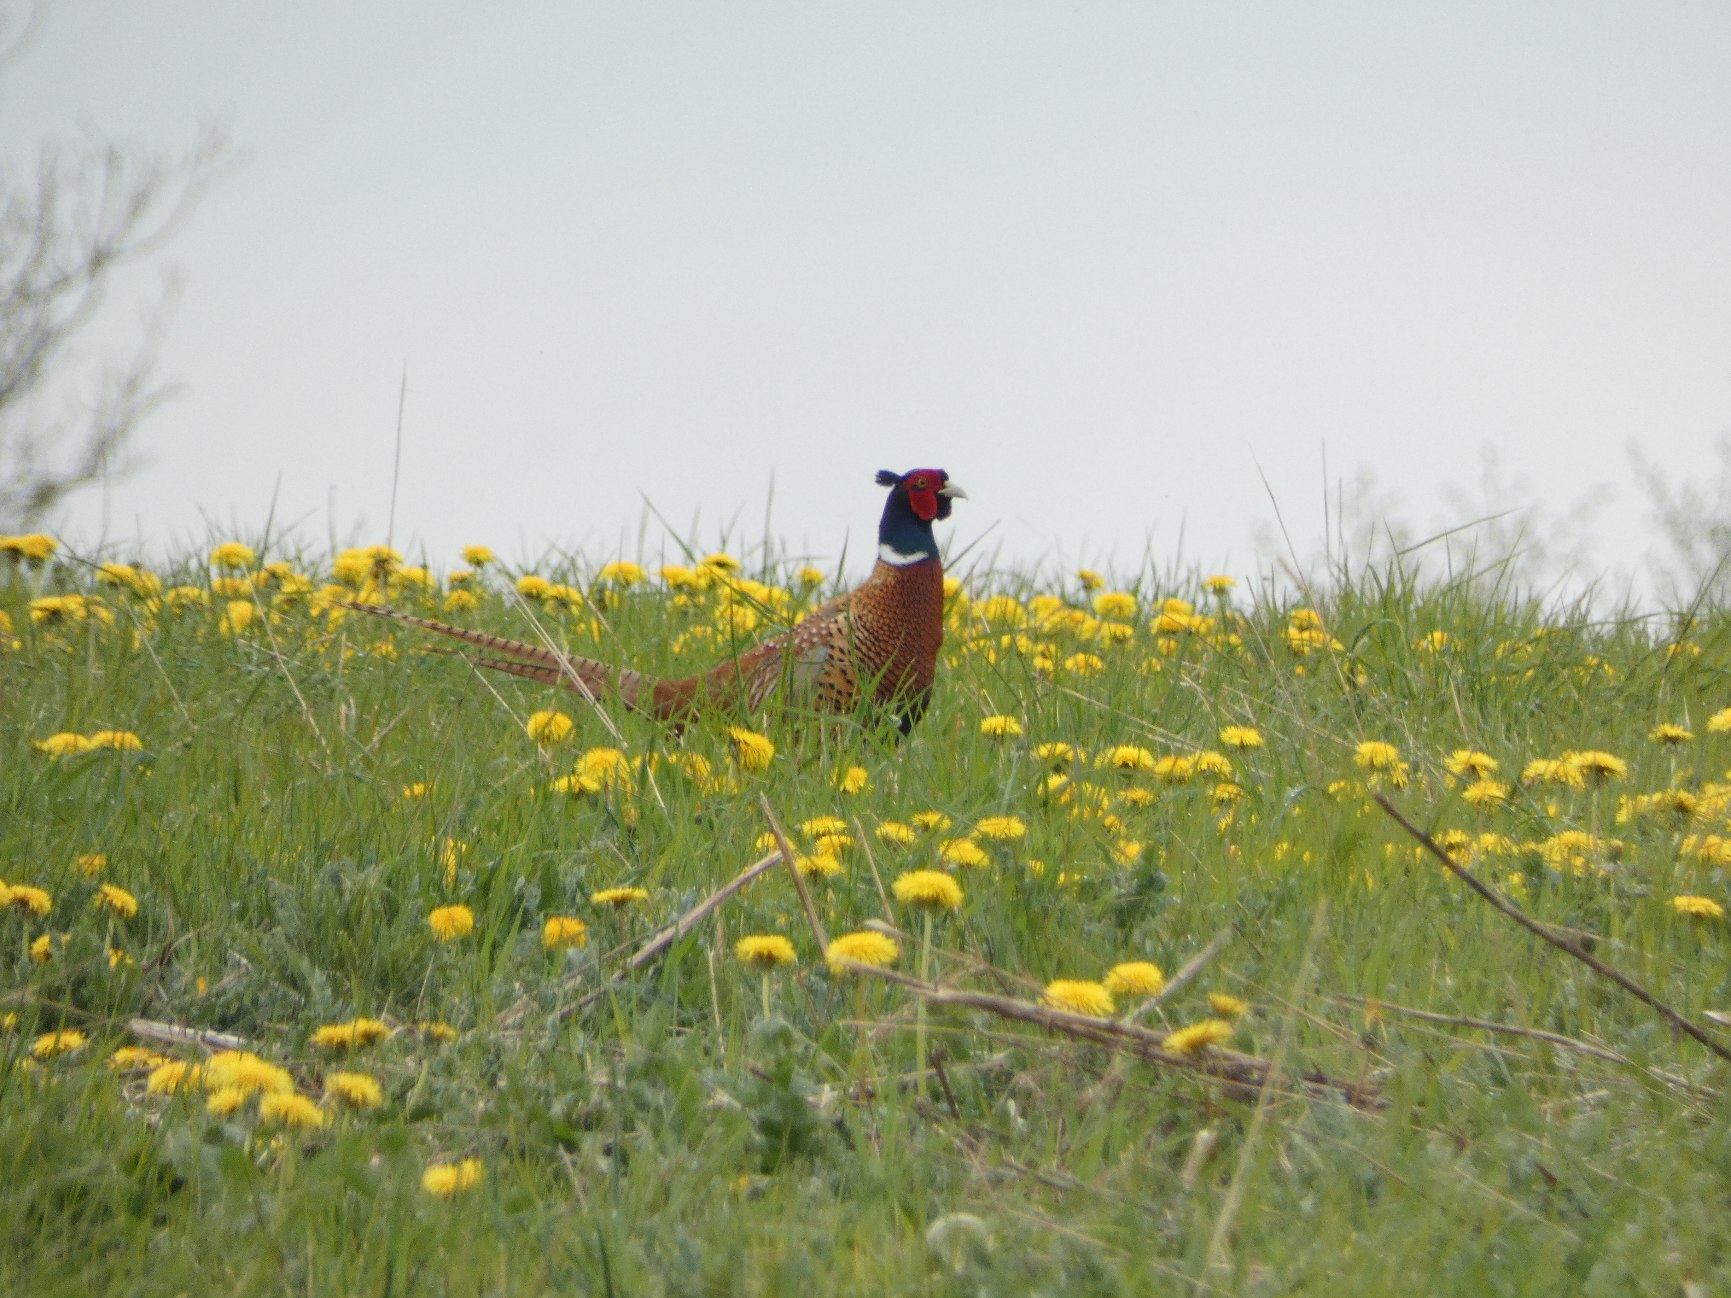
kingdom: Animalia
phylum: Chordata
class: Aves
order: Galliformes
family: Phasianidae
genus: Phasianus
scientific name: Phasianus colchicus
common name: Fasan
